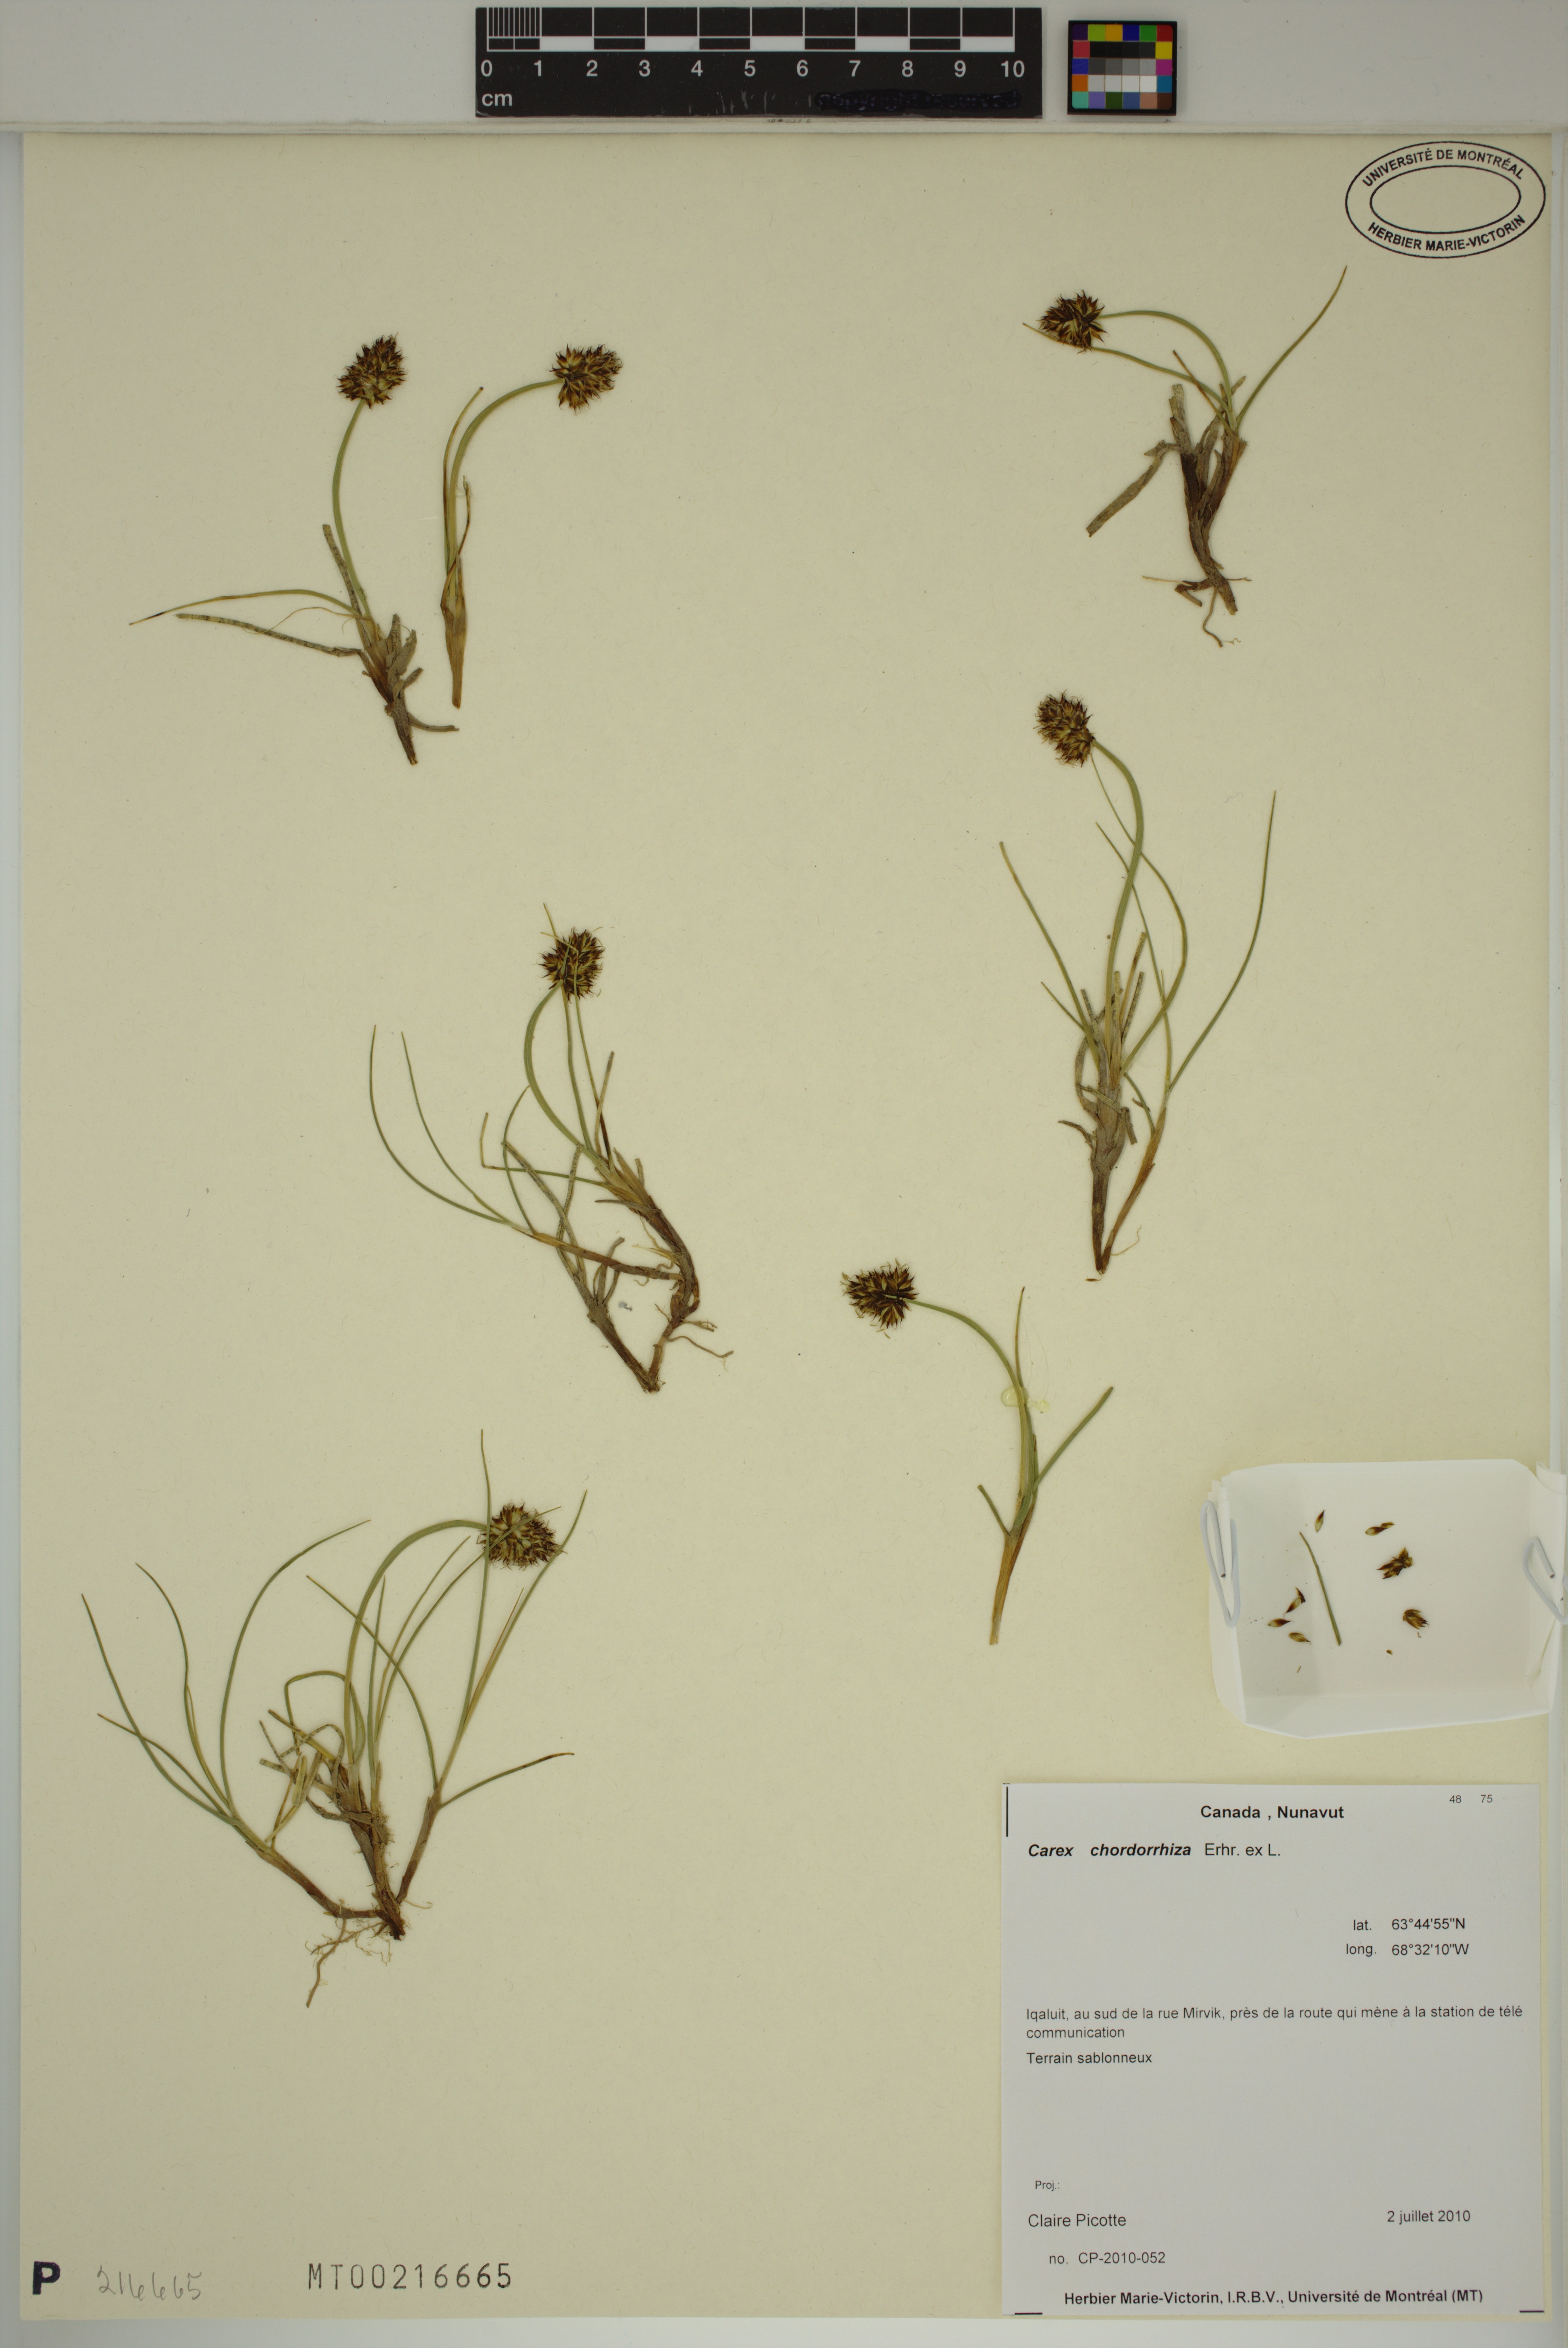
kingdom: Plantae
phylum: Tracheophyta
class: Liliopsida
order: Poales
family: Cyperaceae
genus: Carex
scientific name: Carex chordorrhiza
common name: String sedge
